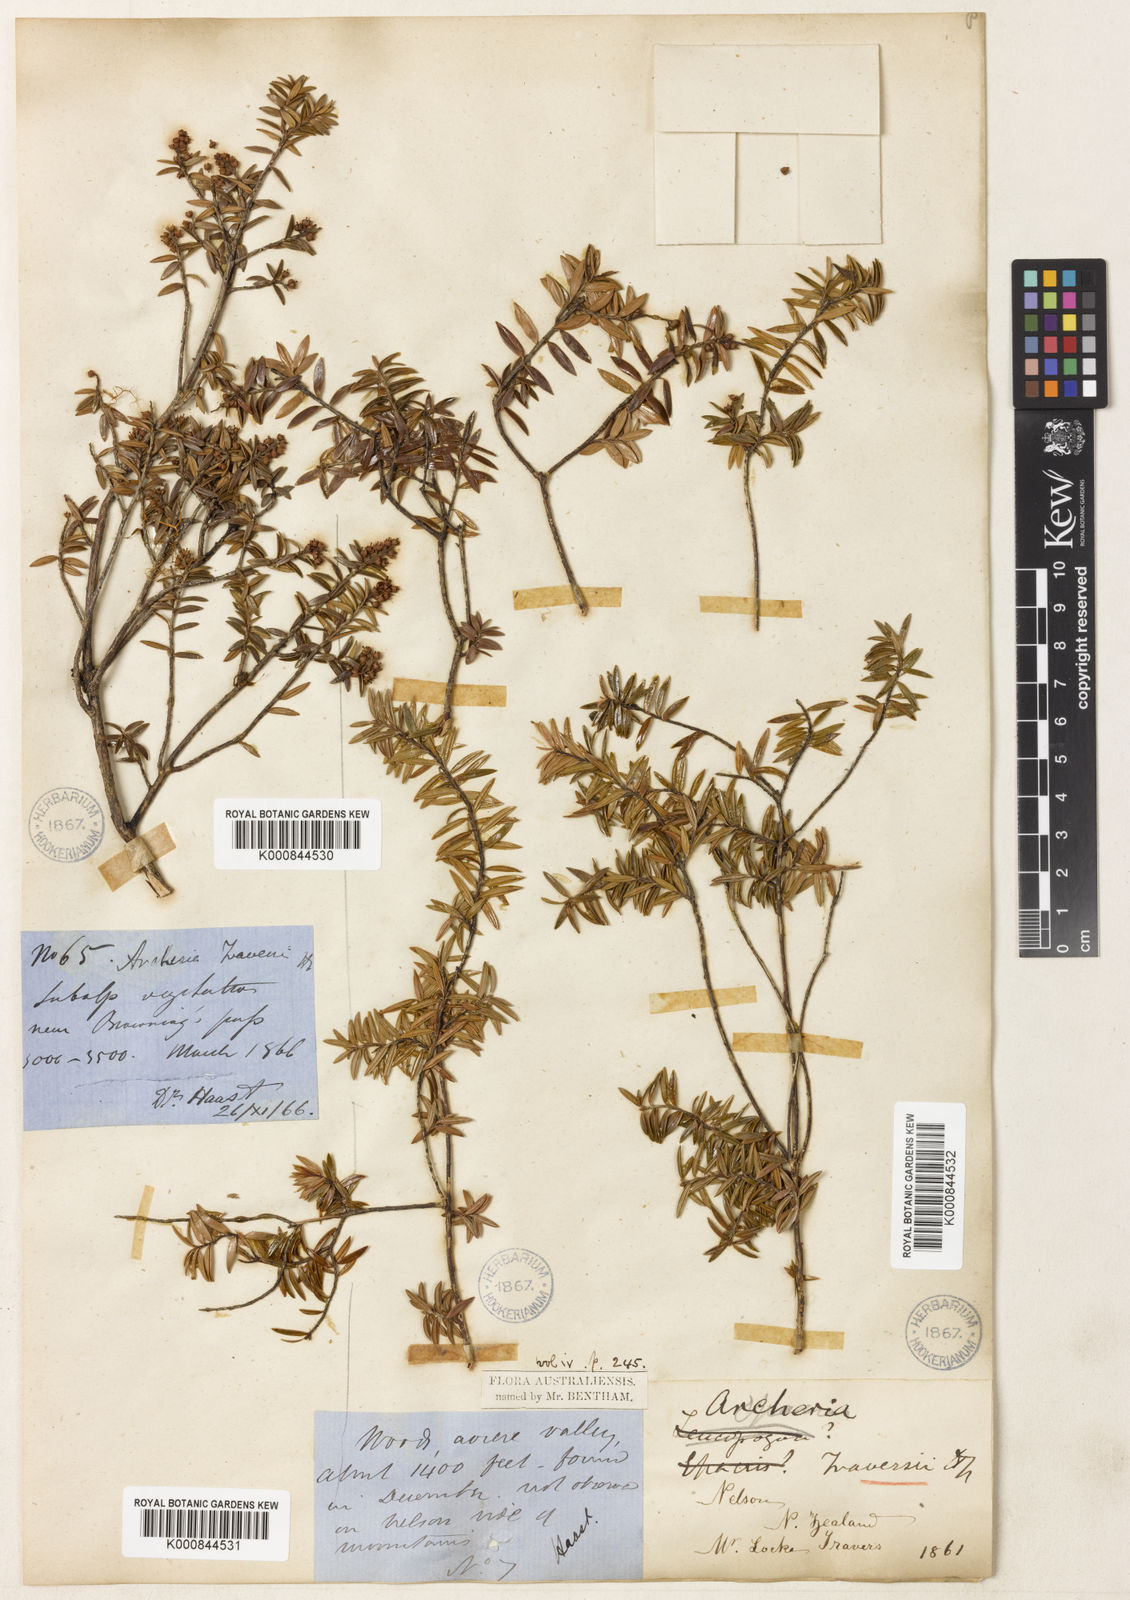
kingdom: Plantae
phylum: Tracheophyta
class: Magnoliopsida
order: Ericales
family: Ericaceae
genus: Archeria
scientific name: Archeria traversii
